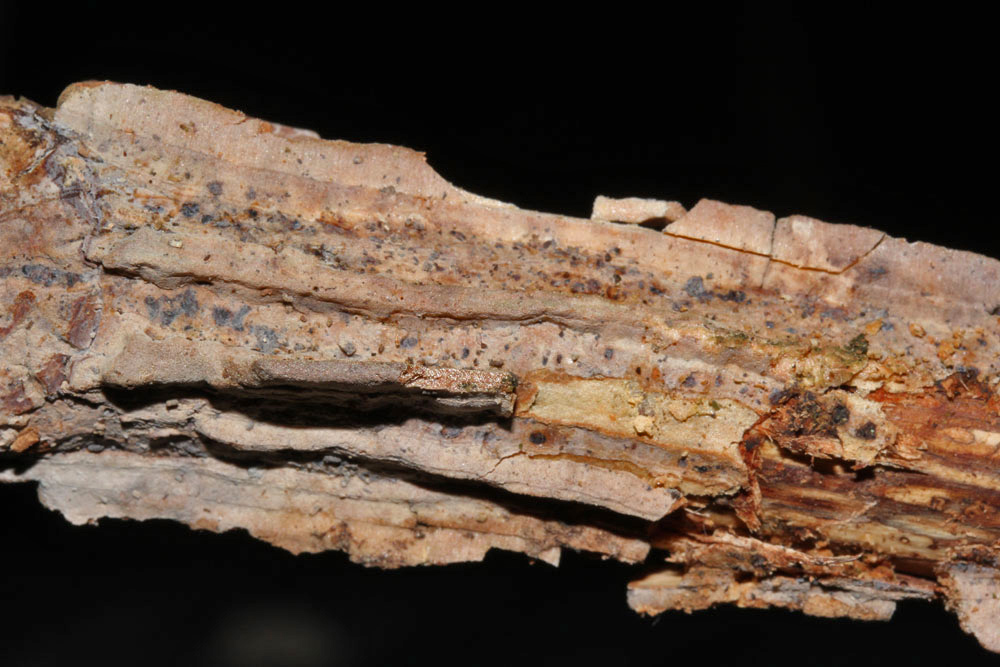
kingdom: Fungi
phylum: Basidiomycota
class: Agaricomycetes
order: Trechisporales
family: Hydnodontaceae
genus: Brevicellicium
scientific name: Brevicellicium olivascens
